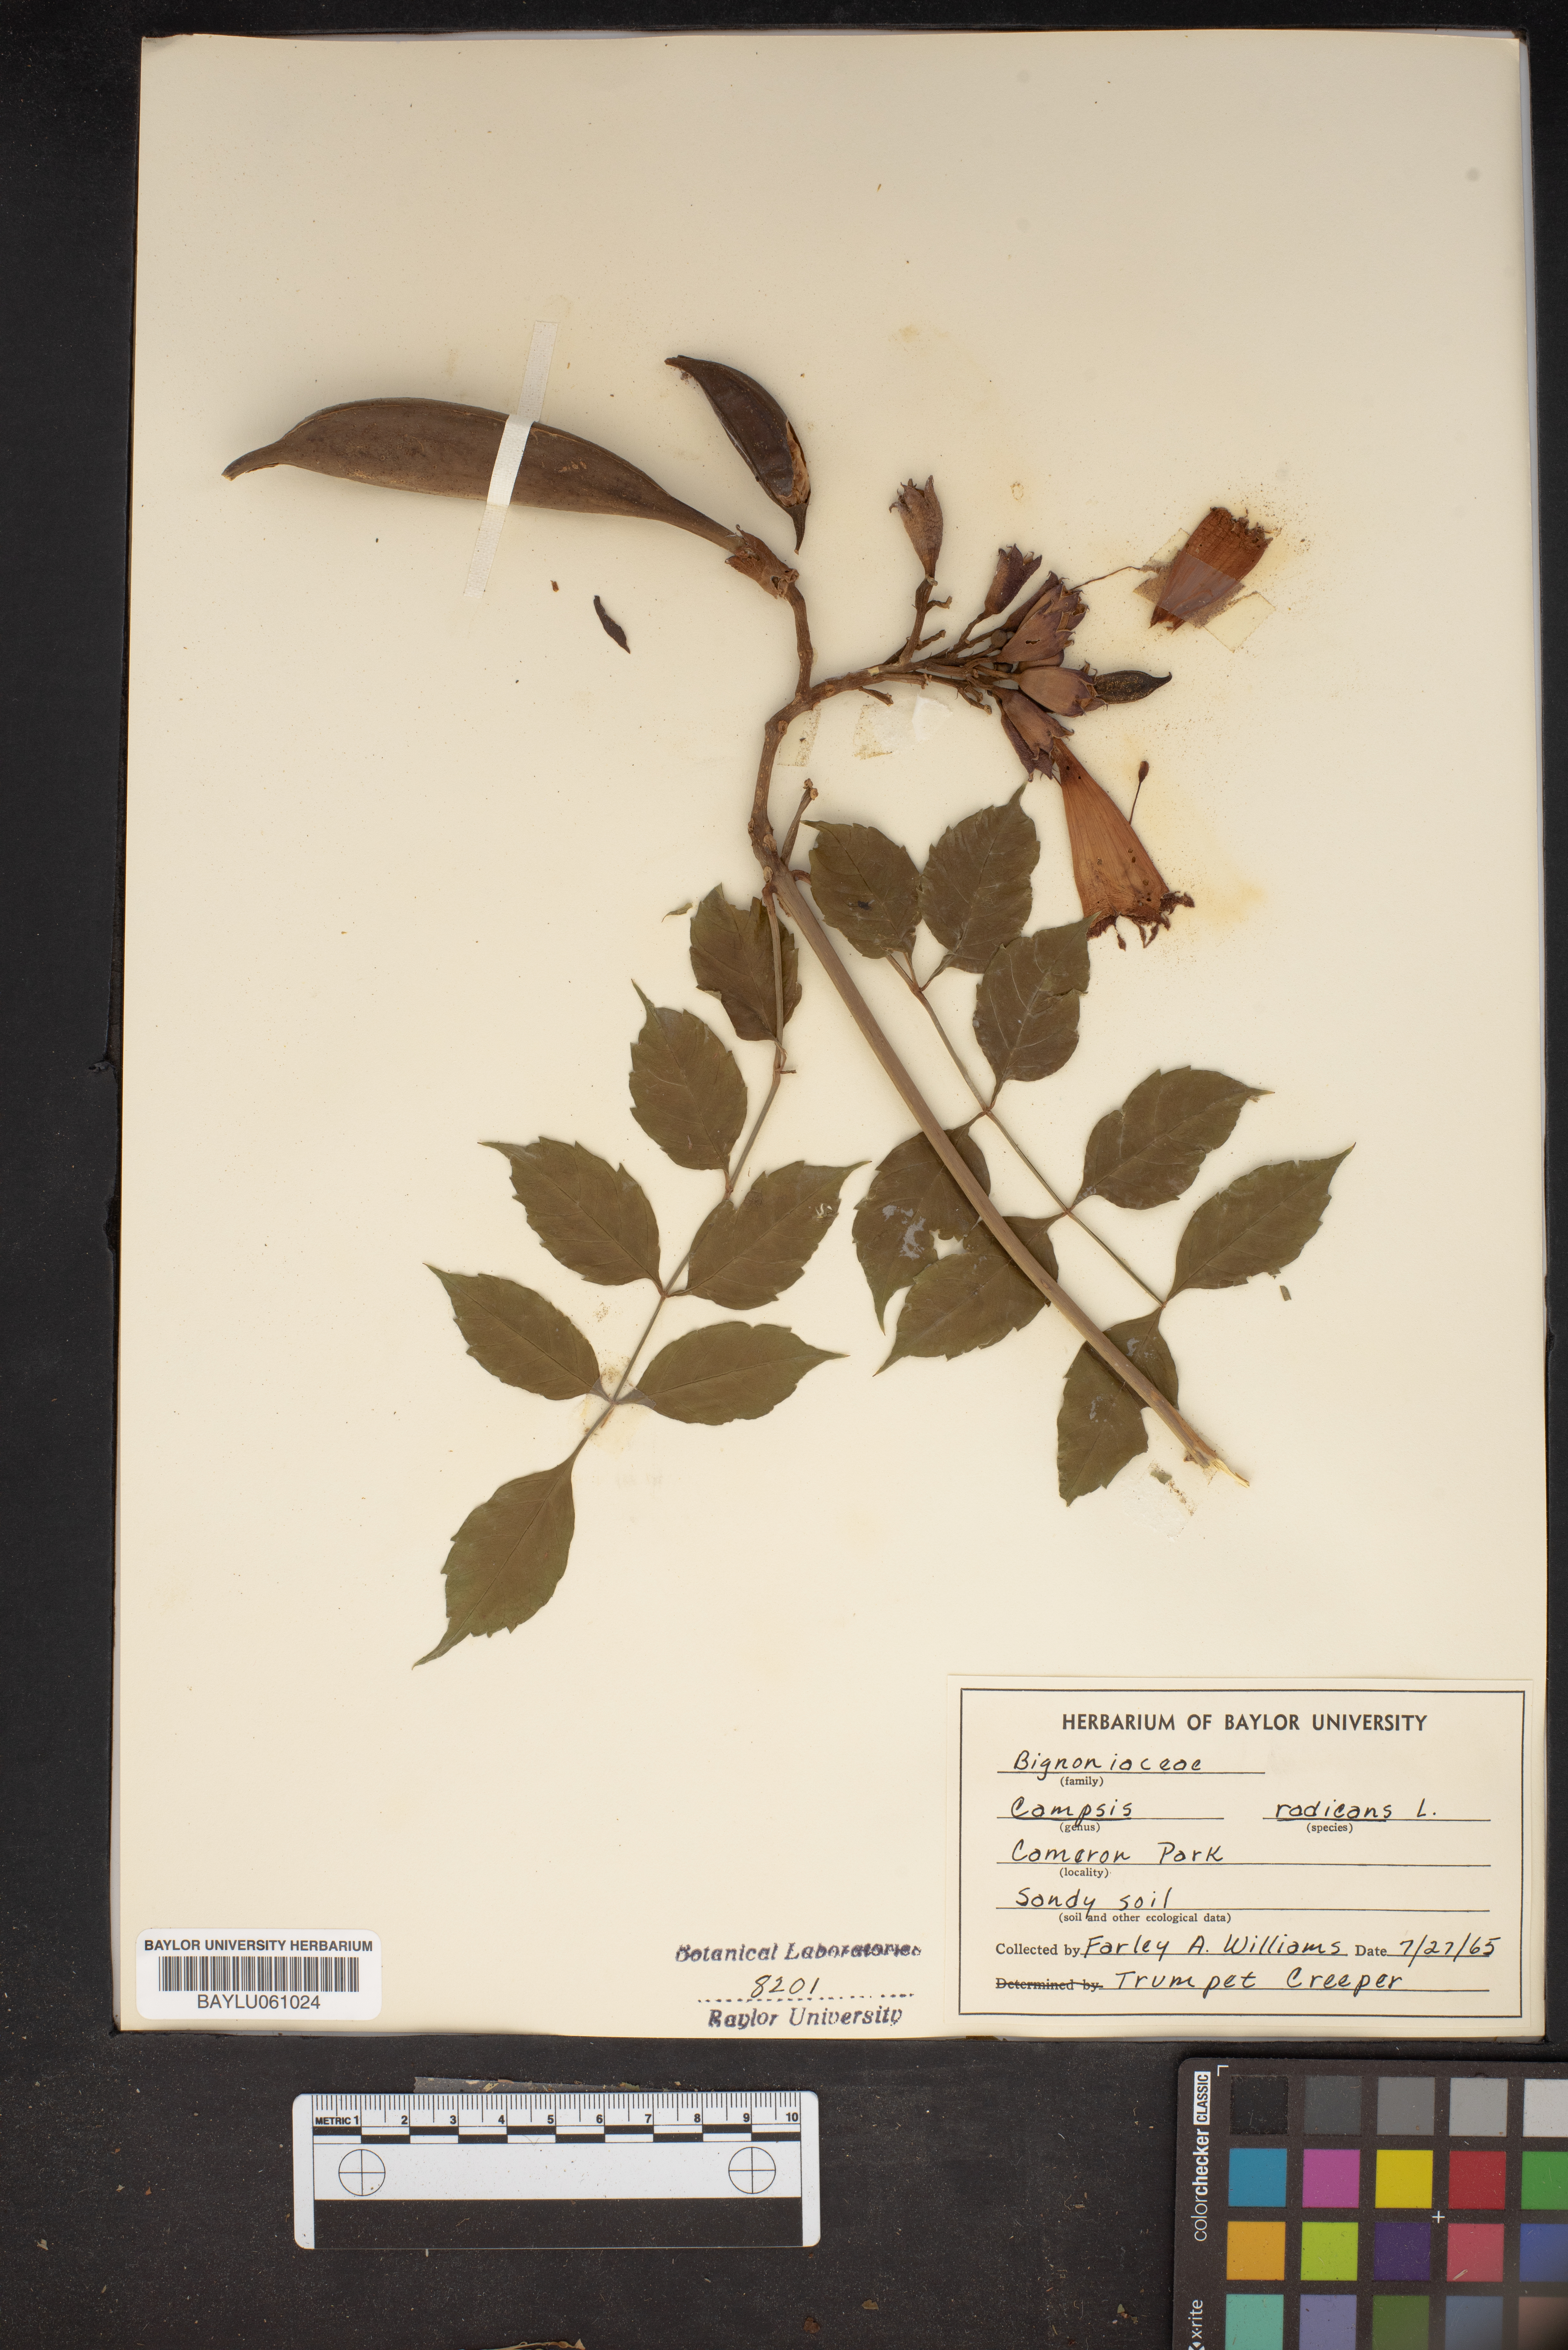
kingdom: Plantae
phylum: Tracheophyta
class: Magnoliopsida
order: Lamiales
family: Bignoniaceae
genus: Campsis
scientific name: Campsis radicans
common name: Trumpet-creeper
